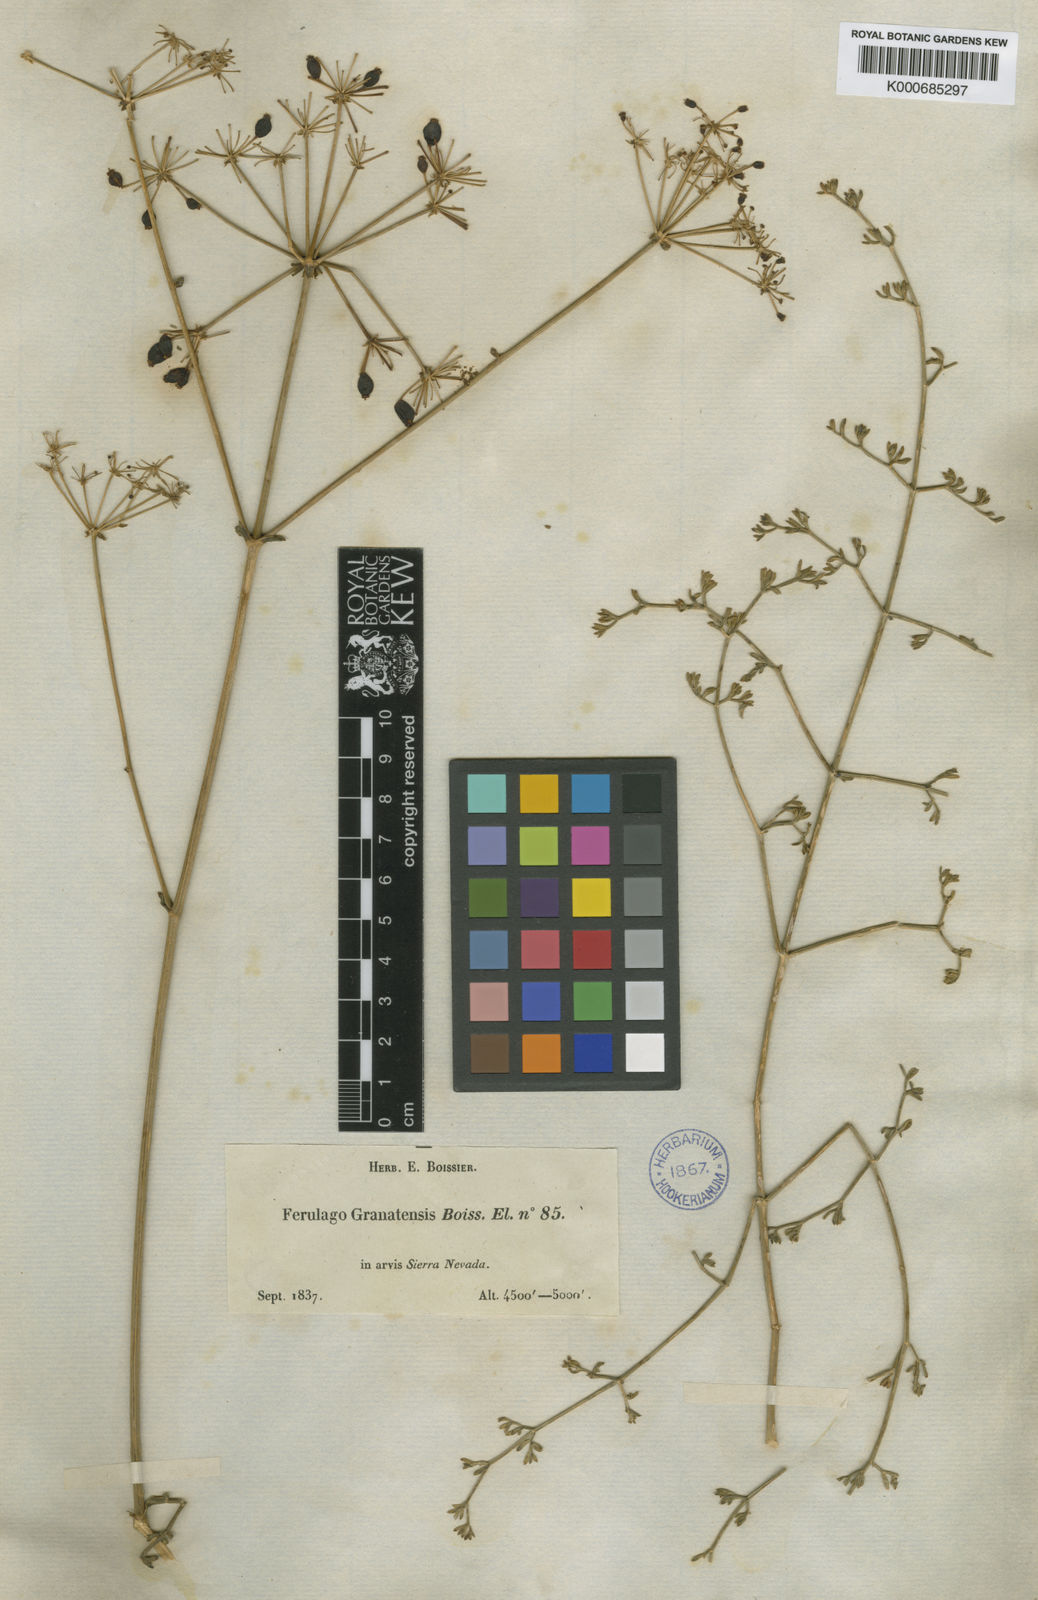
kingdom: Plantae
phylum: Tracheophyta
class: Magnoliopsida
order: Apiales
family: Apiaceae
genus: Ferulago
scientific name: Ferulago granatensis
